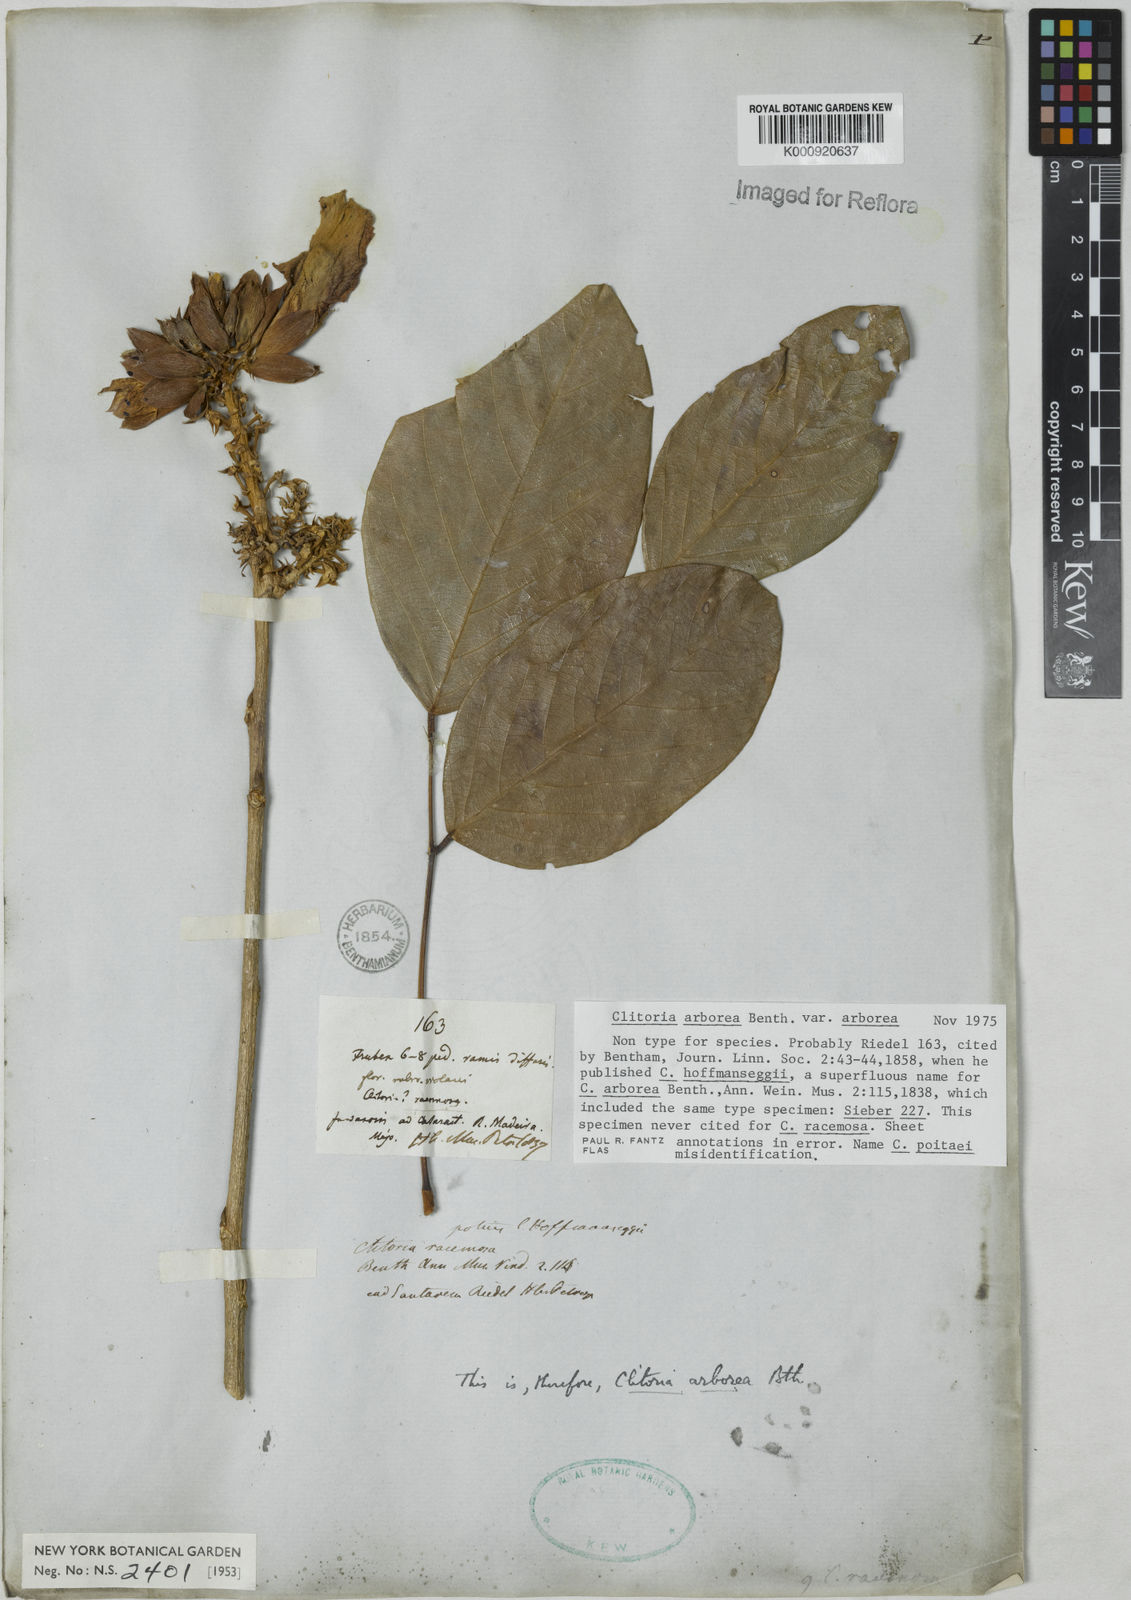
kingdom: Plantae
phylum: Tracheophyta
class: Magnoliopsida
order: Fabales
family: Fabaceae
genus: Clitoria
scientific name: Clitoria arborea
